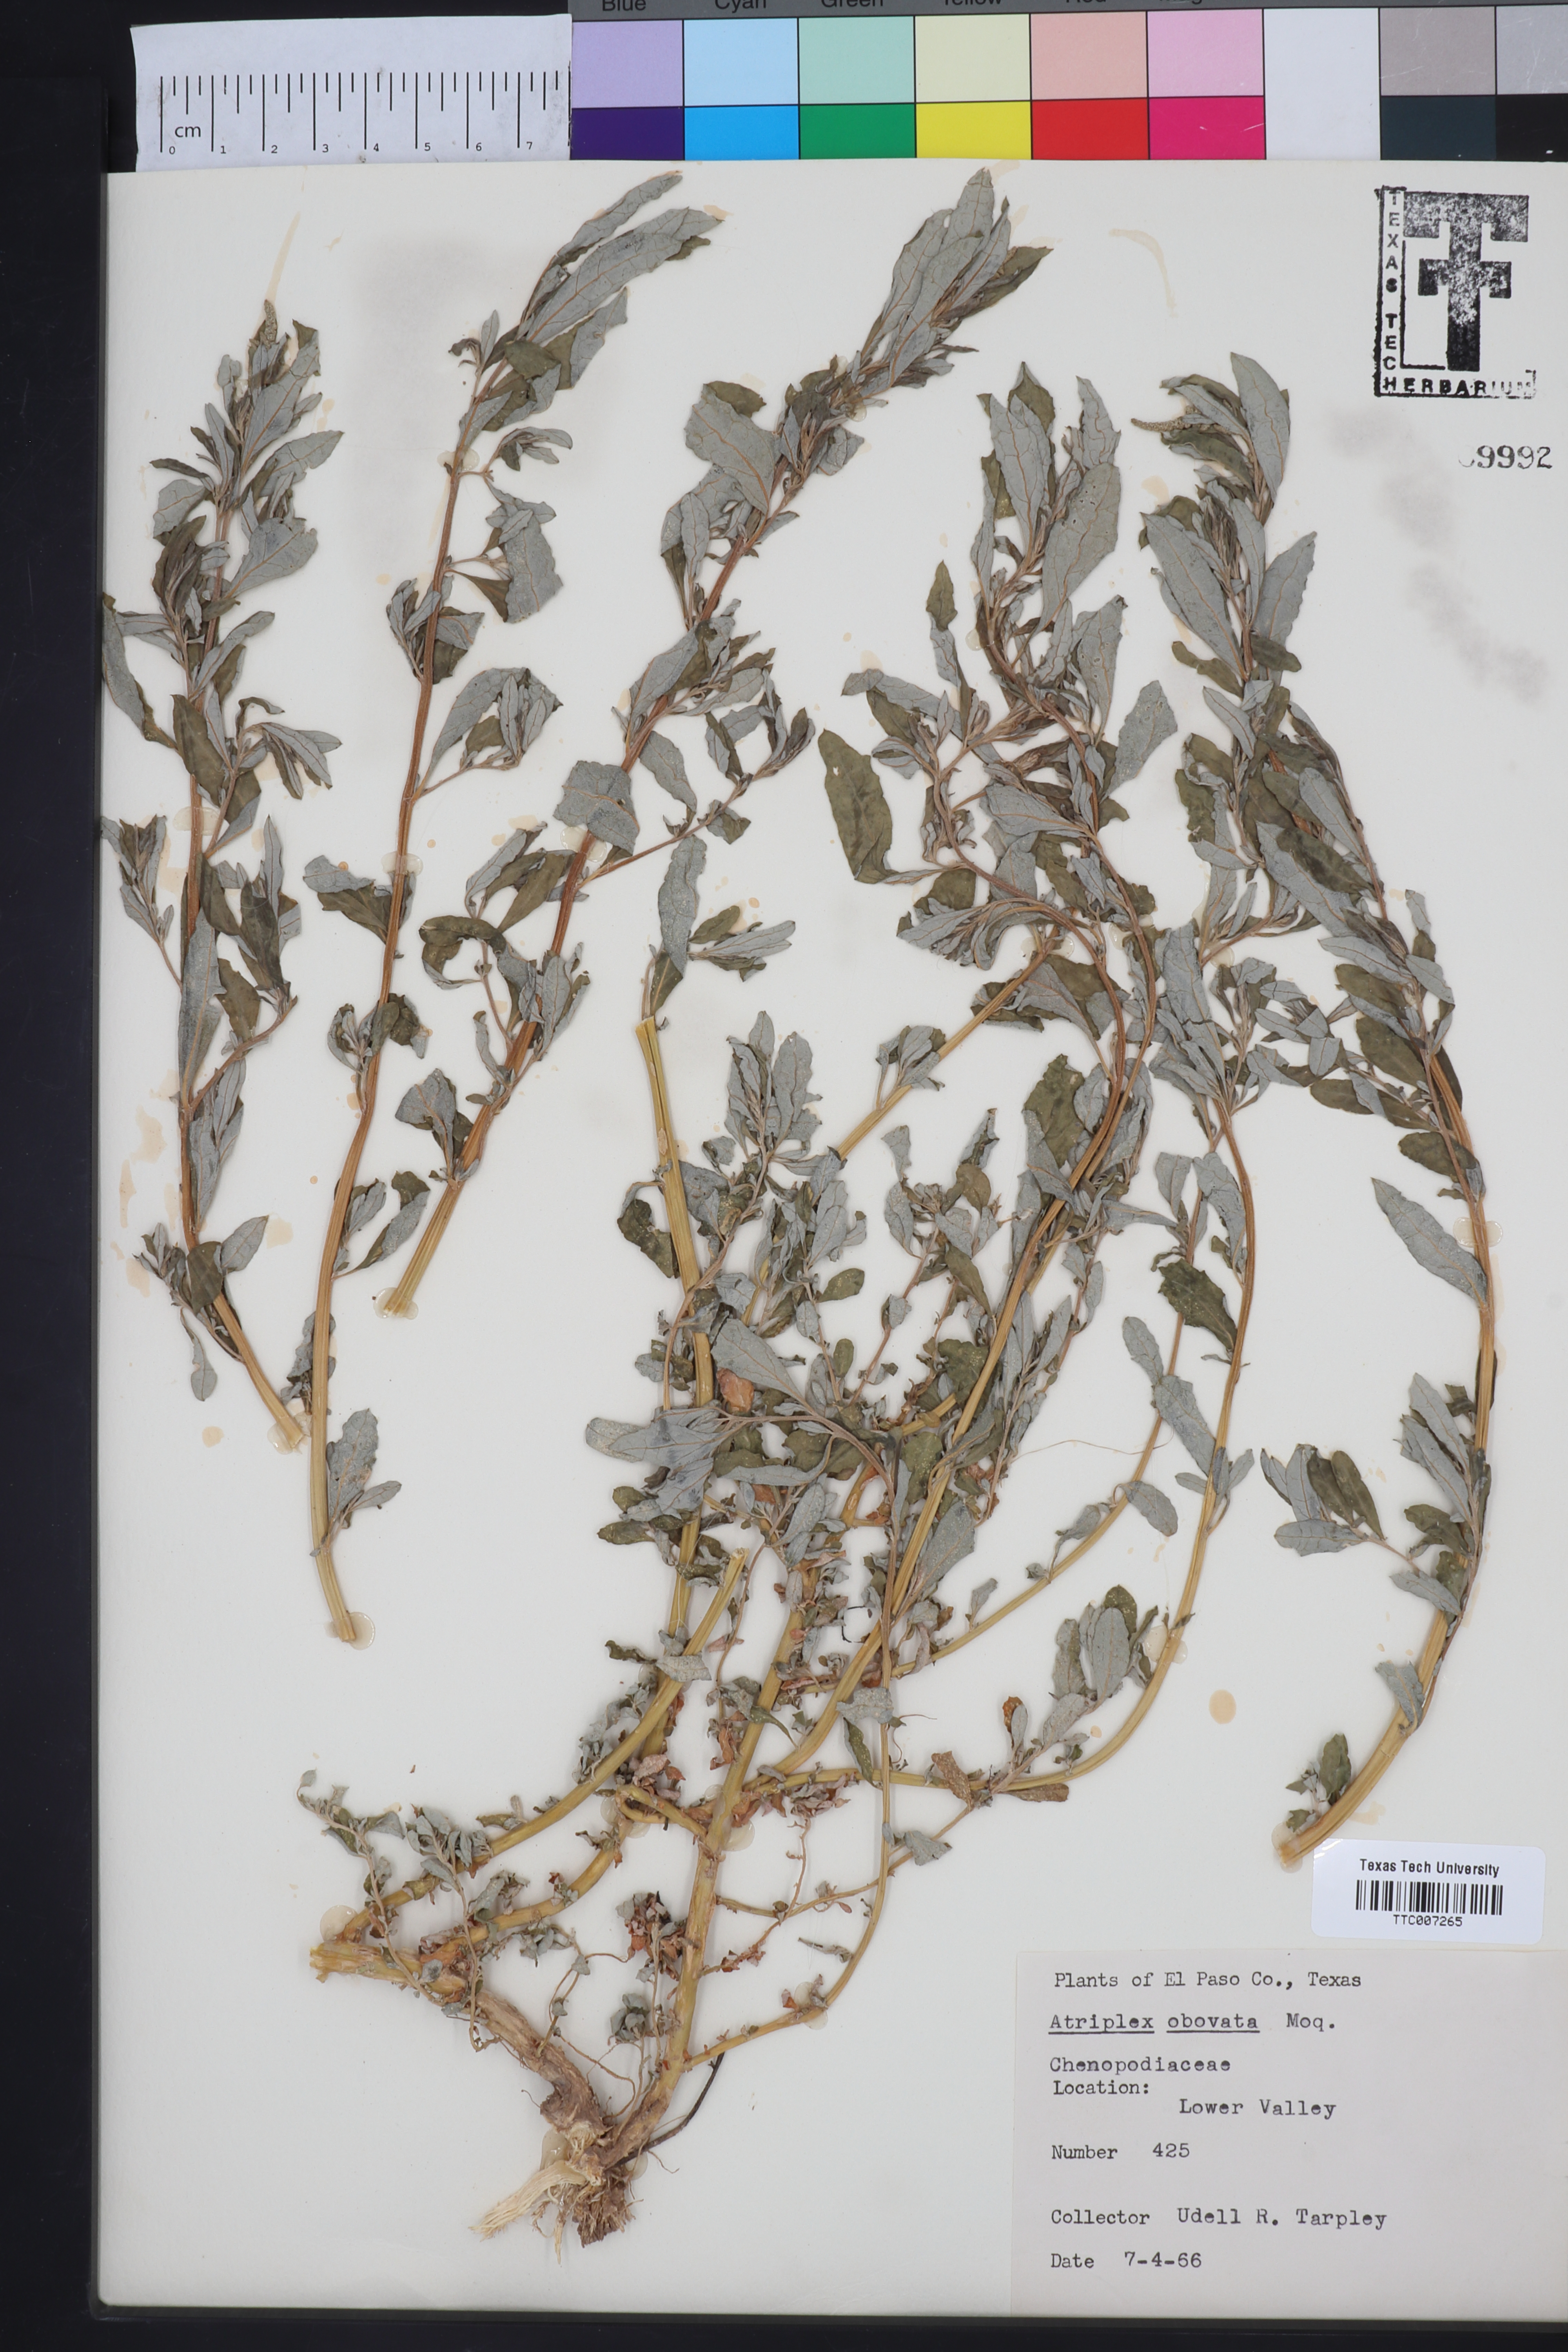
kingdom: Plantae
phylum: Tracheophyta
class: Magnoliopsida
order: Caryophyllales
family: Amaranthaceae
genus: Atriplex
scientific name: Atriplex obovata
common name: New mexico saltbush
